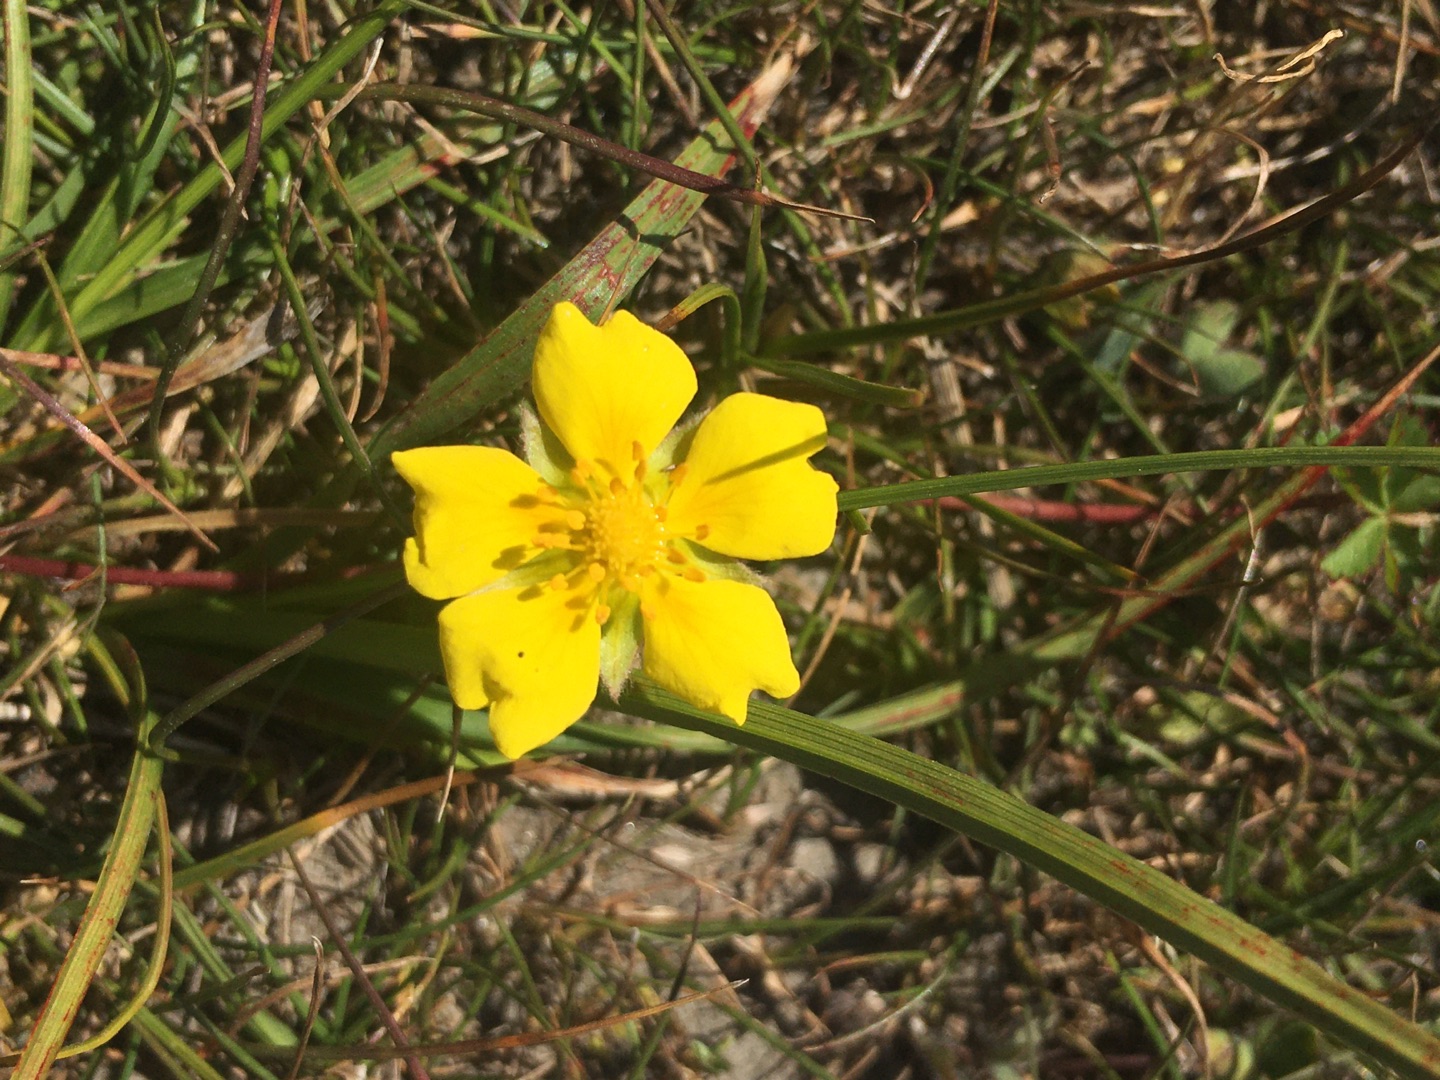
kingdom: Plantae
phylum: Tracheophyta
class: Magnoliopsida
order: Rosales
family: Rosaceae
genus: Potentilla
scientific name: Potentilla reptans
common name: Krybende potentil
